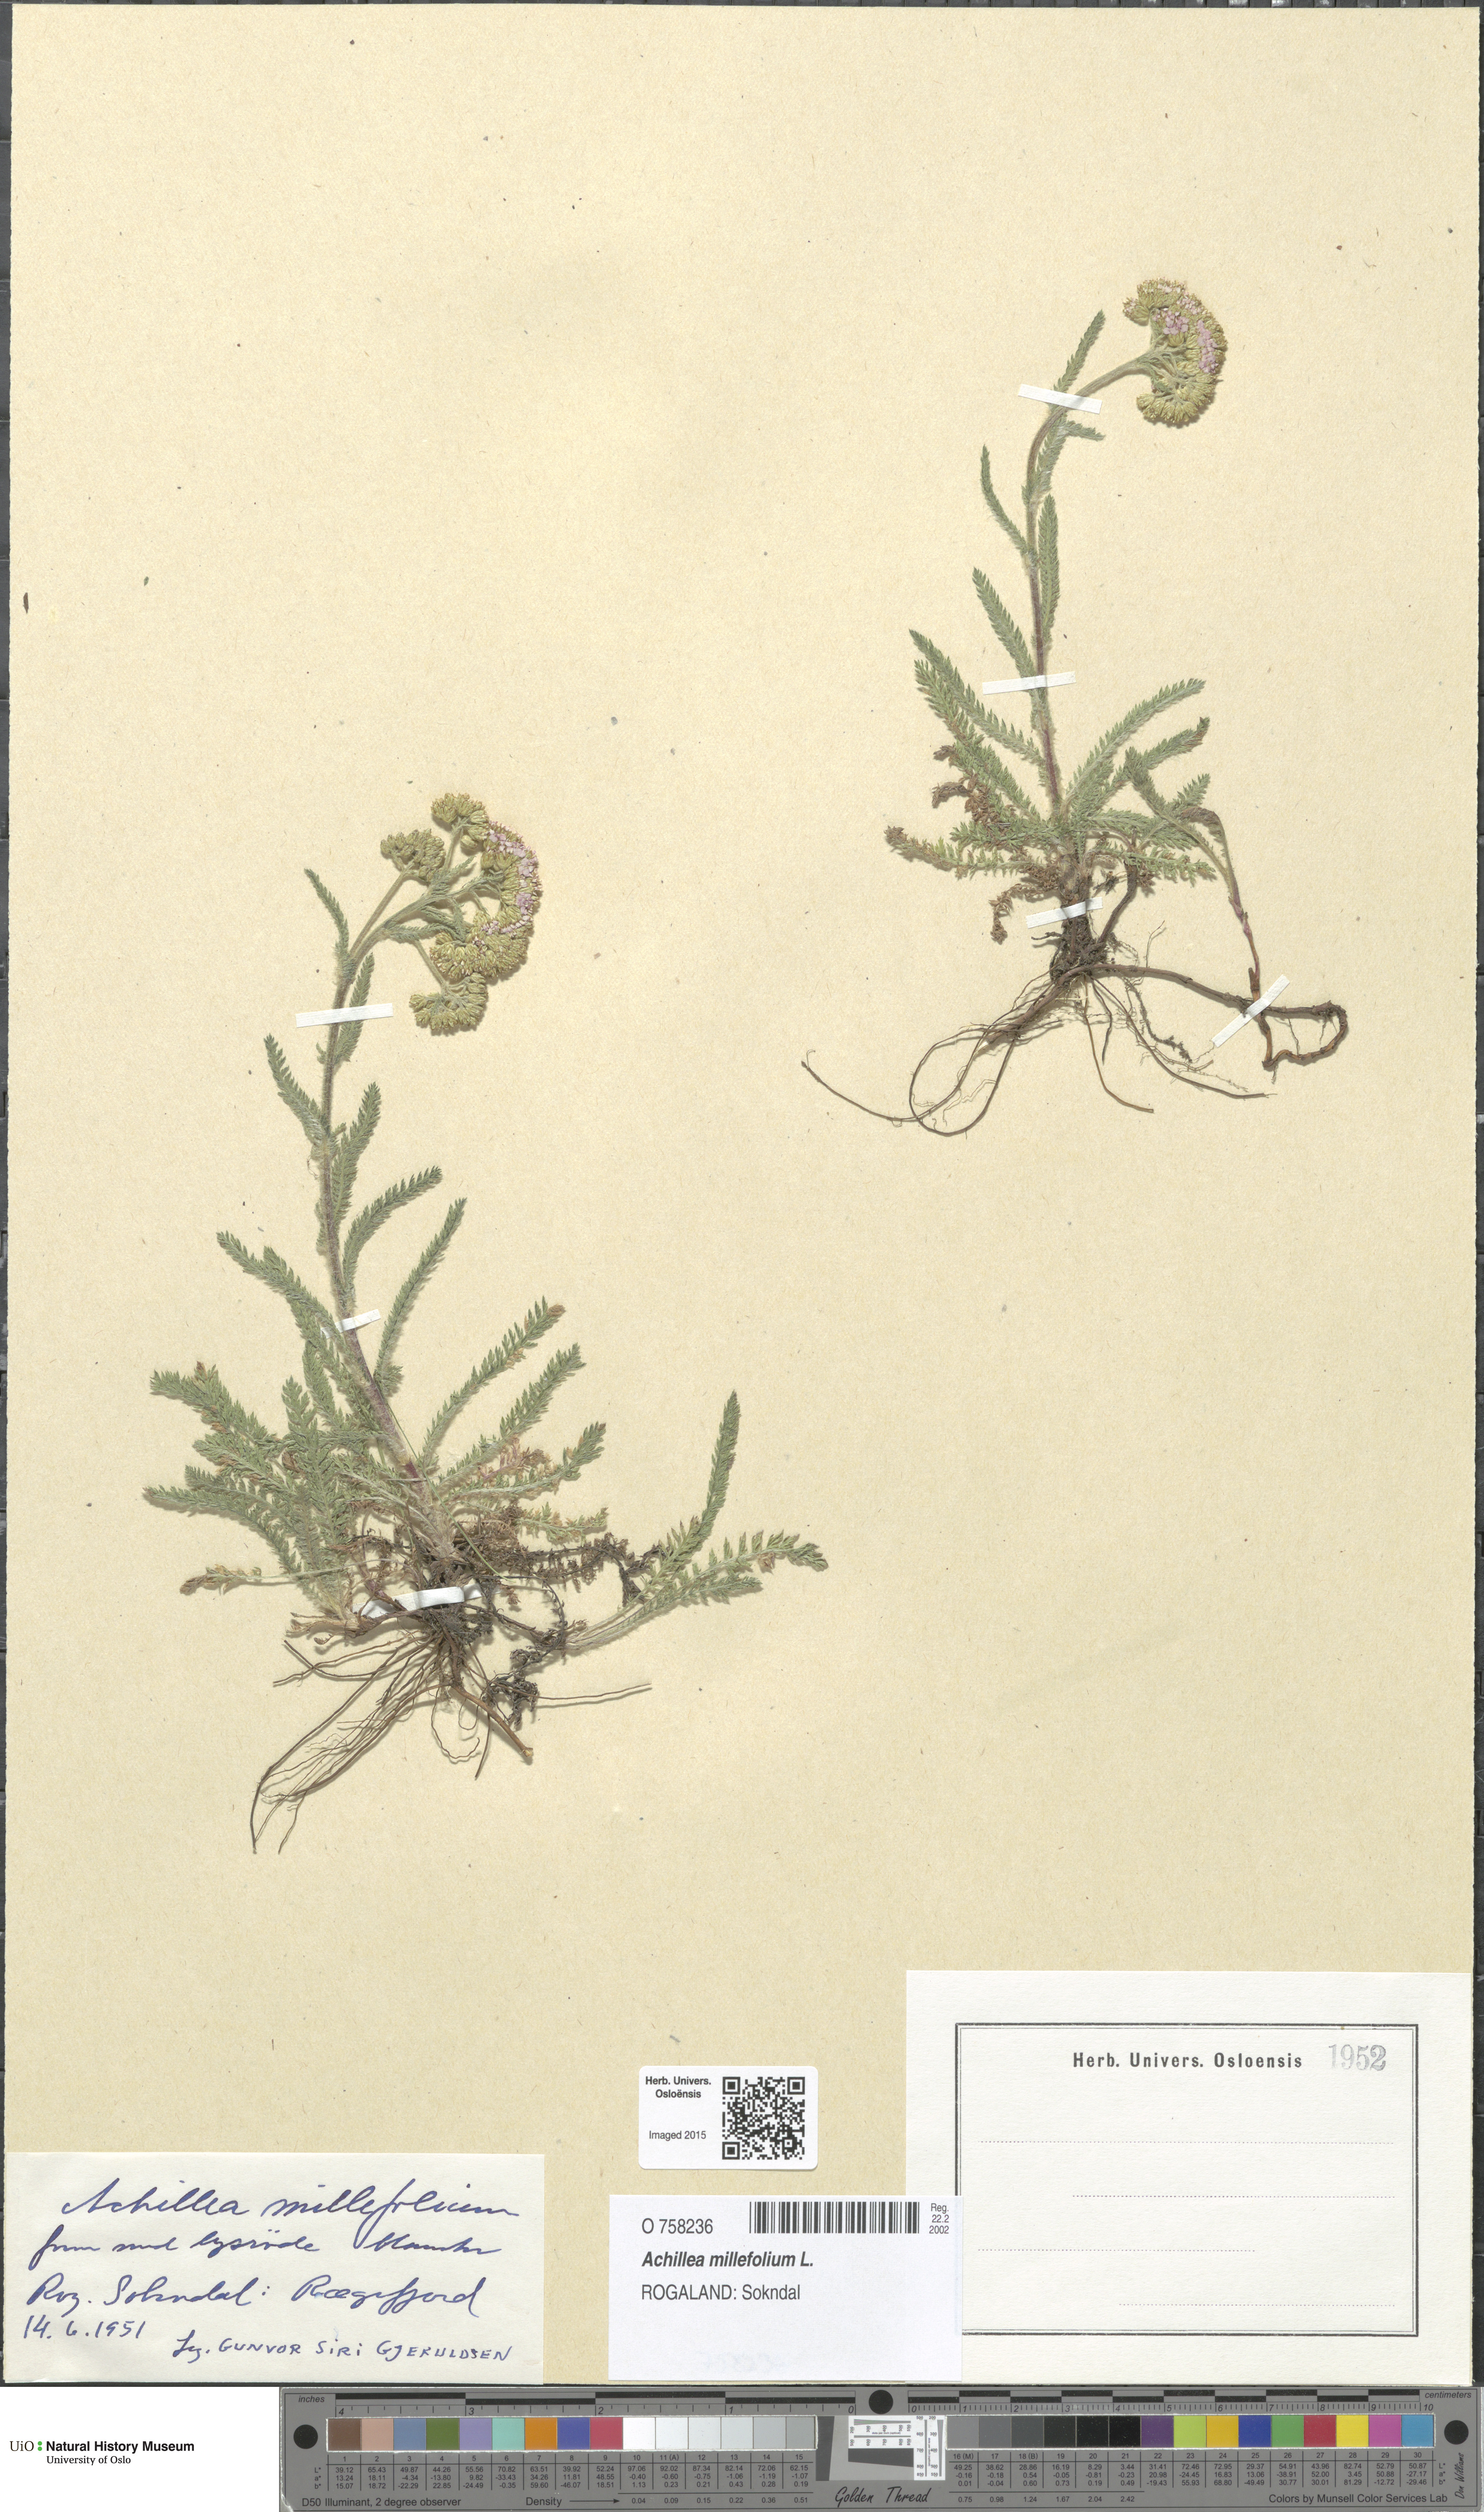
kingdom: Plantae
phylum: Tracheophyta
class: Magnoliopsida
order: Asterales
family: Asteraceae
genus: Achillea
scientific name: Achillea millefolium
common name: Yarrow
